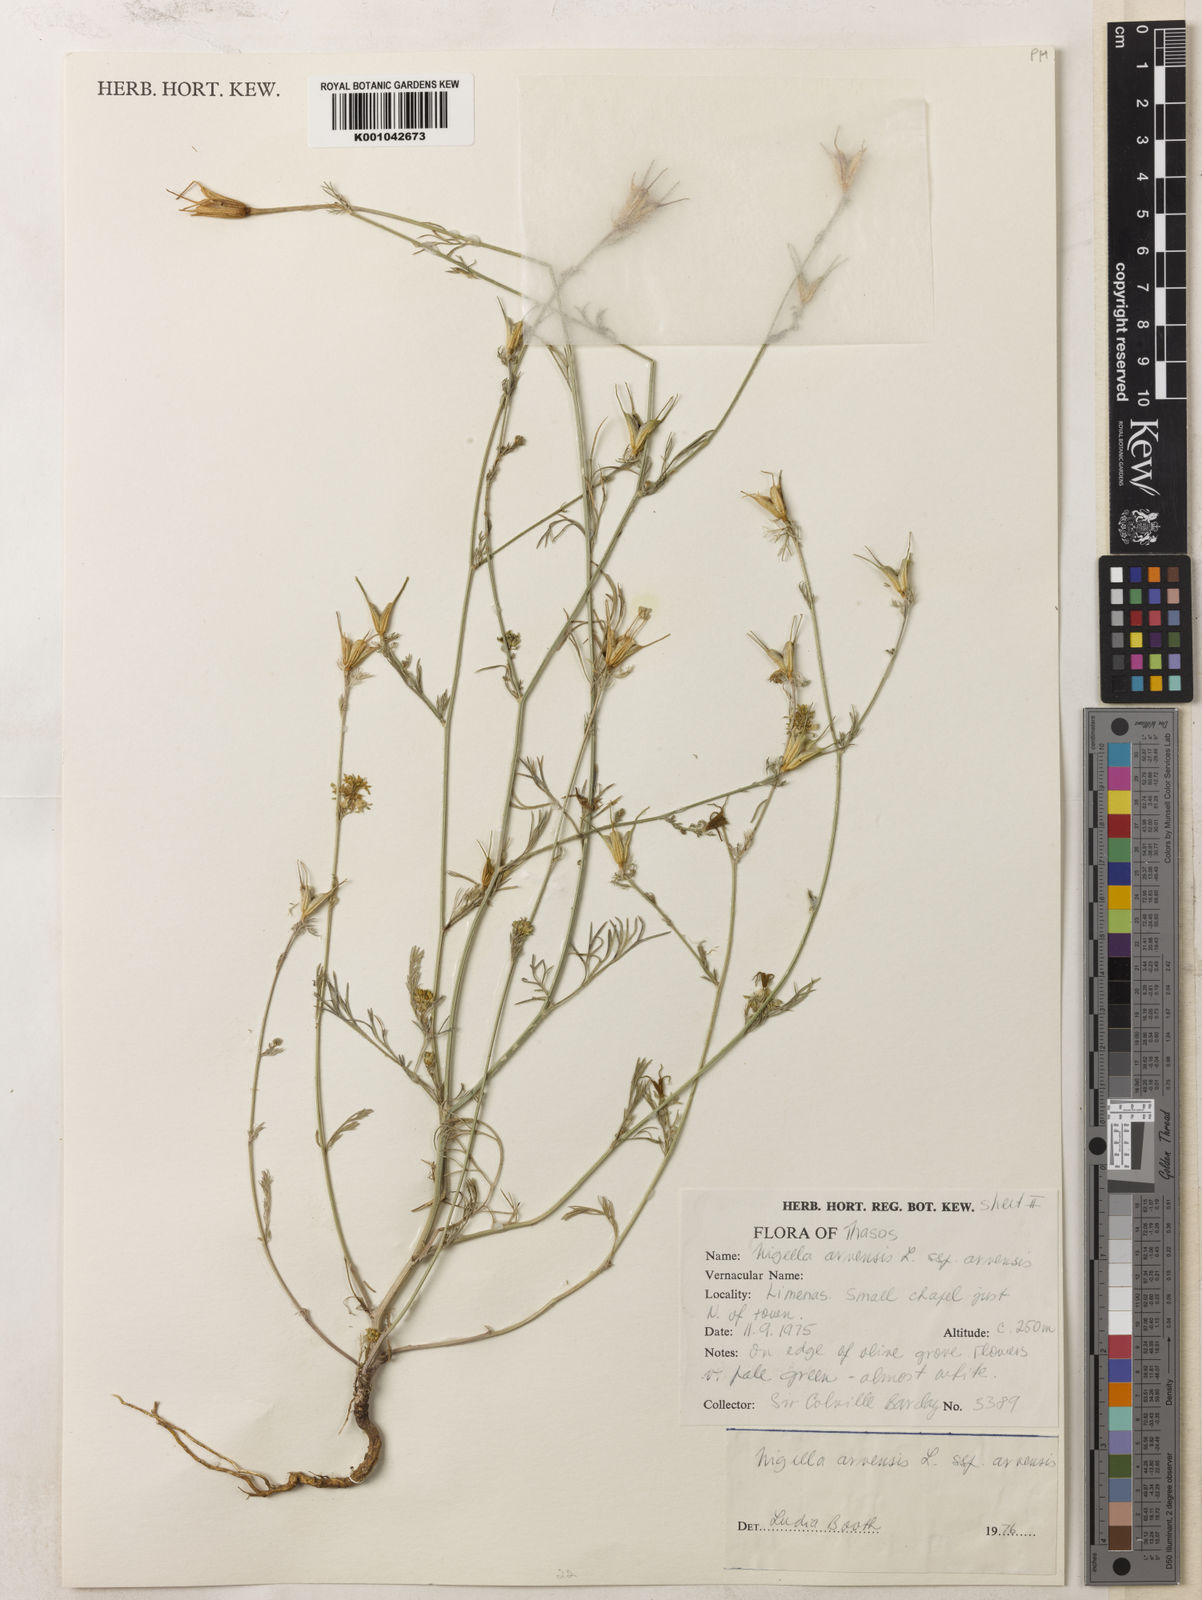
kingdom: Plantae
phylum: Tracheophyta
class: Magnoliopsida
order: Ranunculales
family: Ranunculaceae
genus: Nigella
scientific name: Nigella arvensis
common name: Wild fennel-flower
